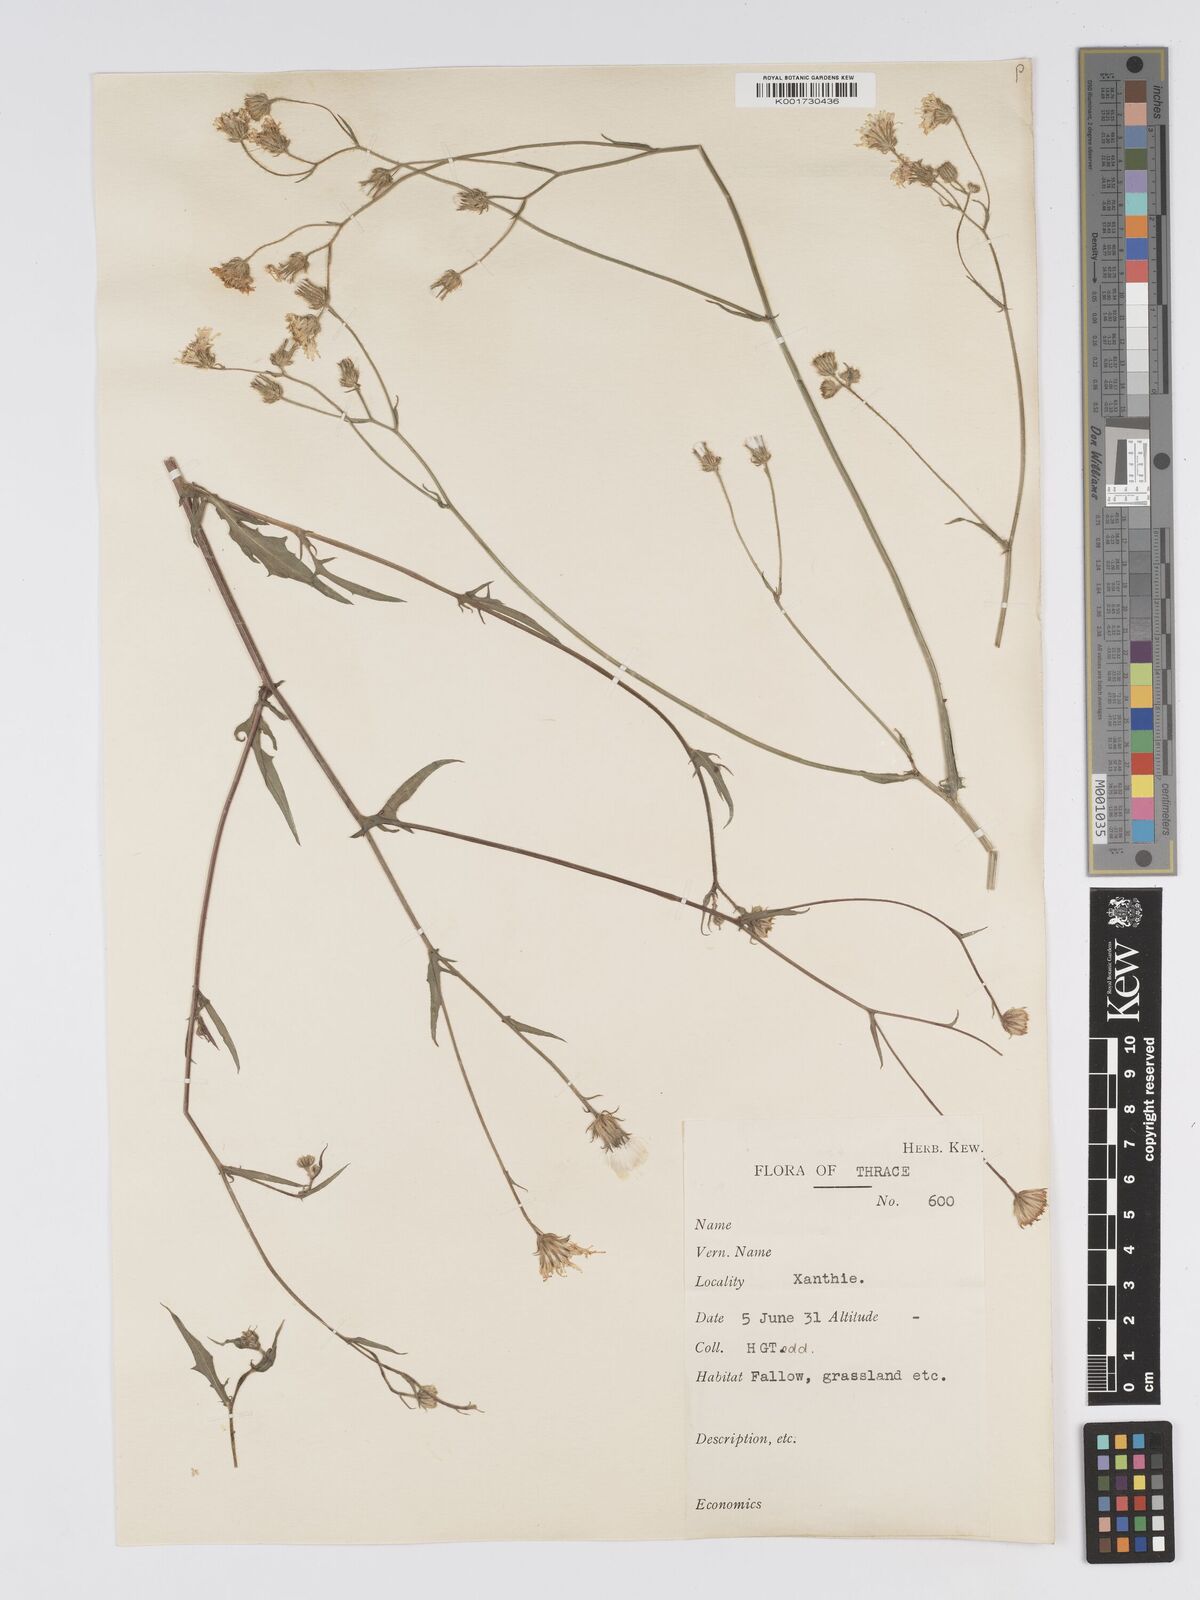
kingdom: Plantae
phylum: Tracheophyta
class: Magnoliopsida
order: Asterales
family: Asteraceae
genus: Crepis
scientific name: Crepis setosa
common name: Bristly hawk's-beard
